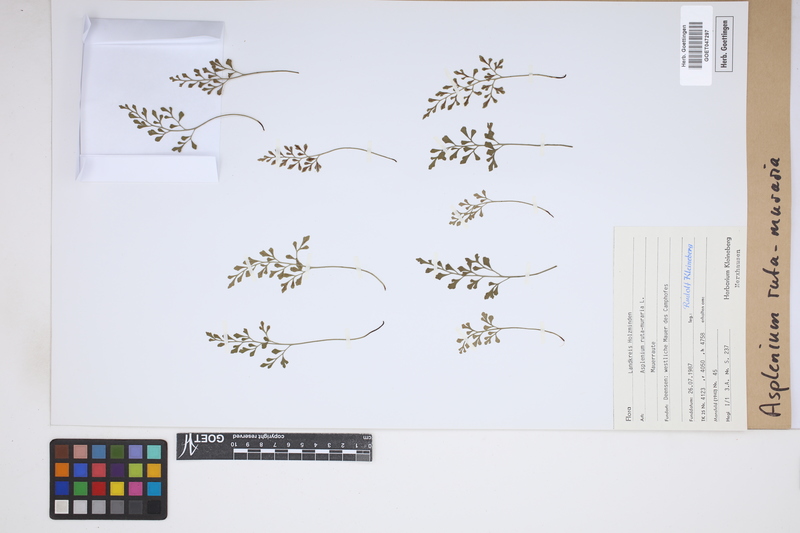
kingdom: Plantae
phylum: Tracheophyta
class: Polypodiopsida
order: Polypodiales
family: Aspleniaceae
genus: Asplenium
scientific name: Asplenium ruta-muraria
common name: Wall-rue
